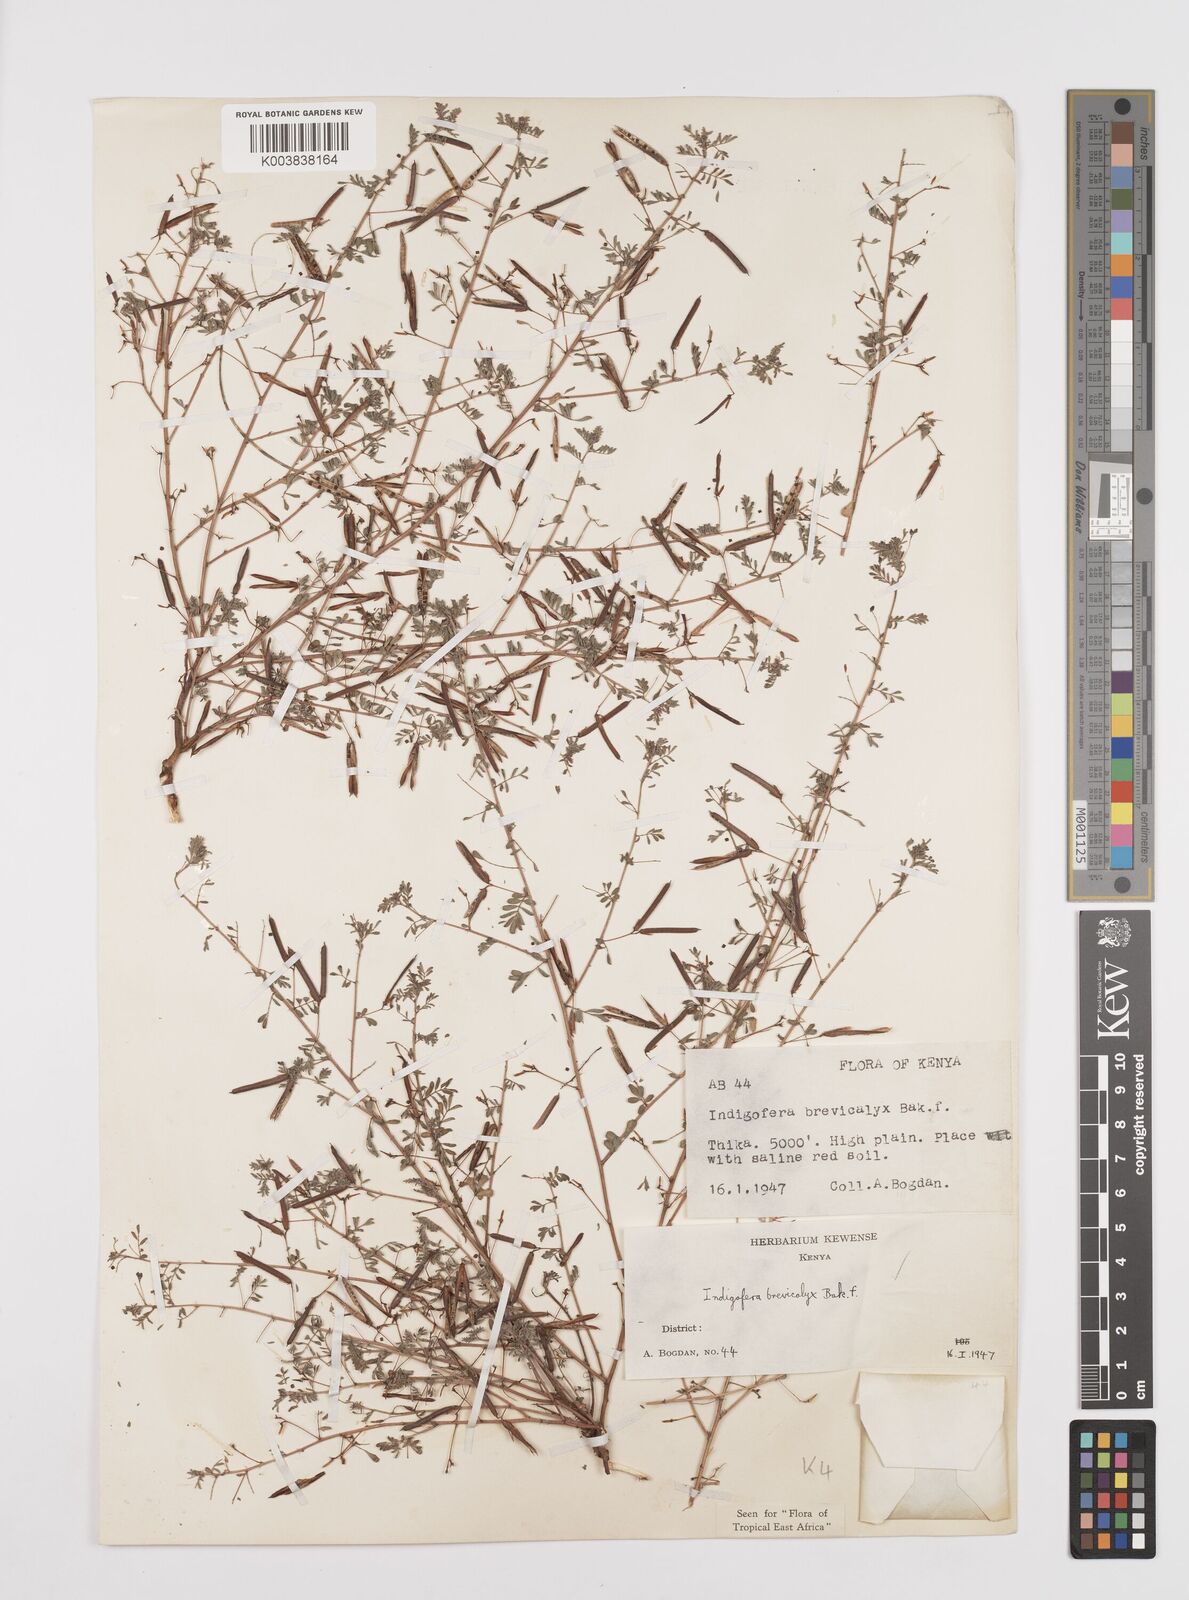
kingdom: Plantae
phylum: Tracheophyta
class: Magnoliopsida
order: Fabales
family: Fabaceae
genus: Indigofera
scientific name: Indigofera brevicalyx
